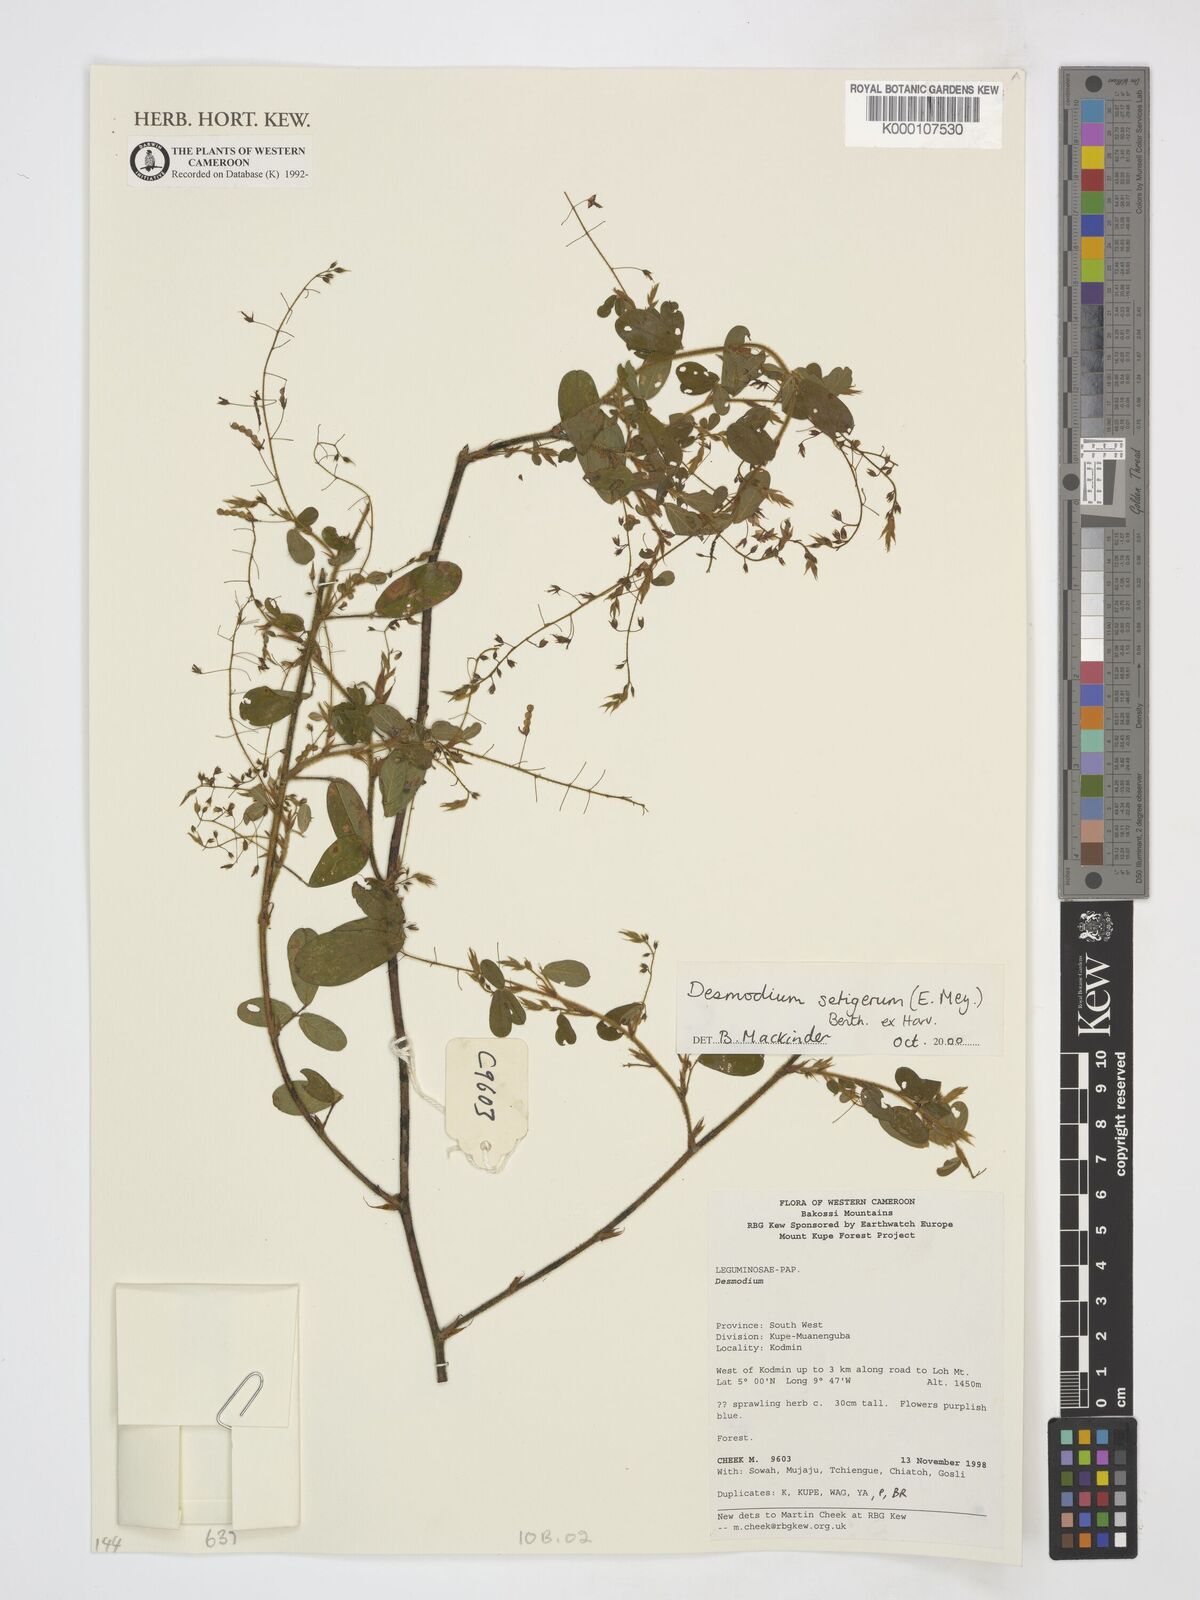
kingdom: Plantae
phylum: Tracheophyta
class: Magnoliopsida
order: Fabales
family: Fabaceae
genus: Grona
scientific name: Grona setigera
